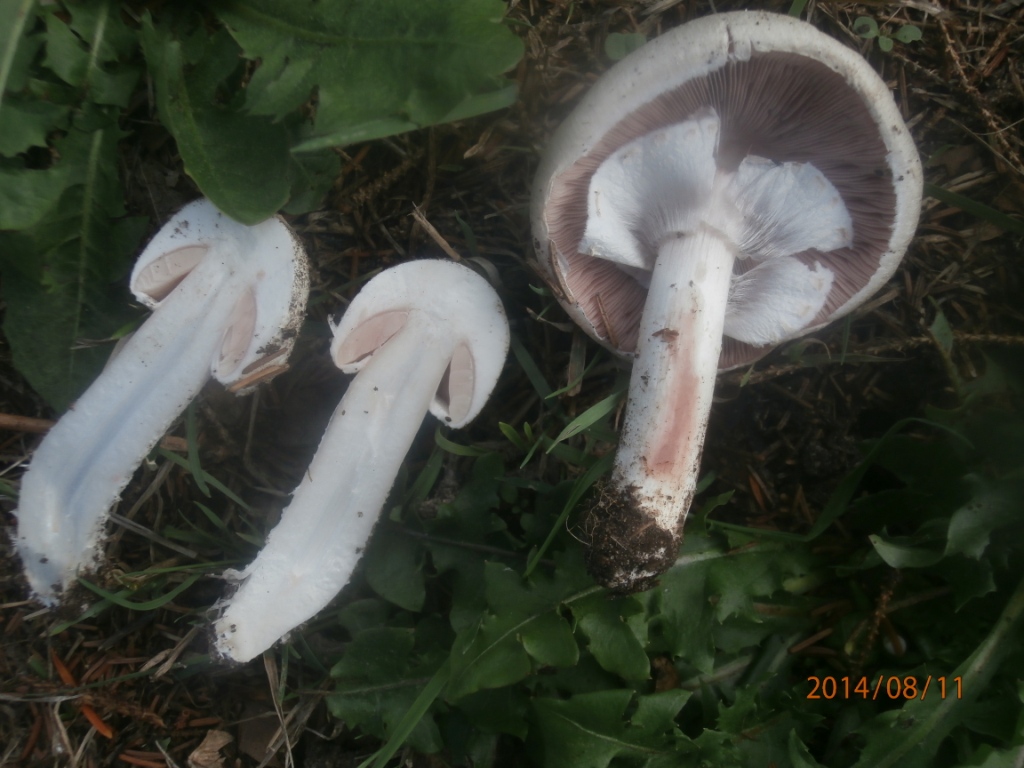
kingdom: Fungi
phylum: Basidiomycota
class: Agaricomycetes
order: Agaricales
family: Agaricaceae
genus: Agaricus
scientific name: Agaricus campestris
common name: mark-champignon
